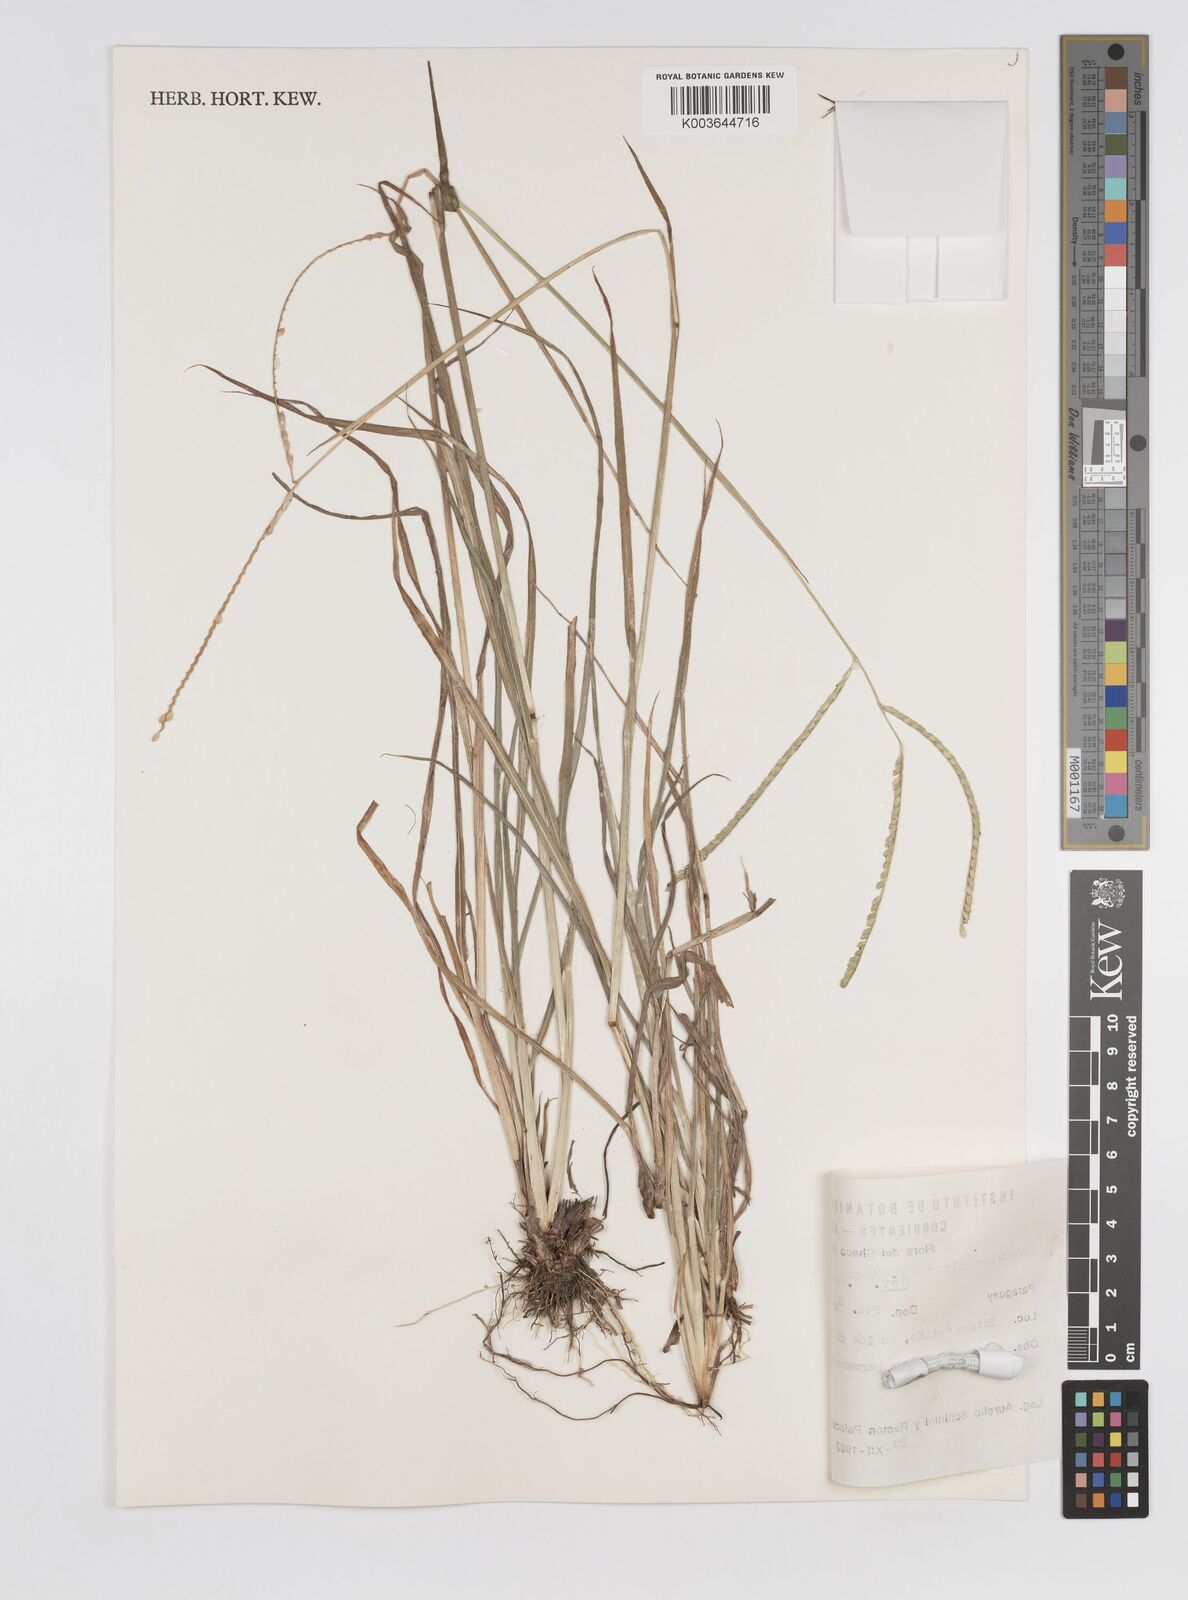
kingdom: Plantae
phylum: Tracheophyta
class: Liliopsida
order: Poales
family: Poaceae
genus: Paspalum
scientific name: Paspalum almum
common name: Comb's crowngrass
